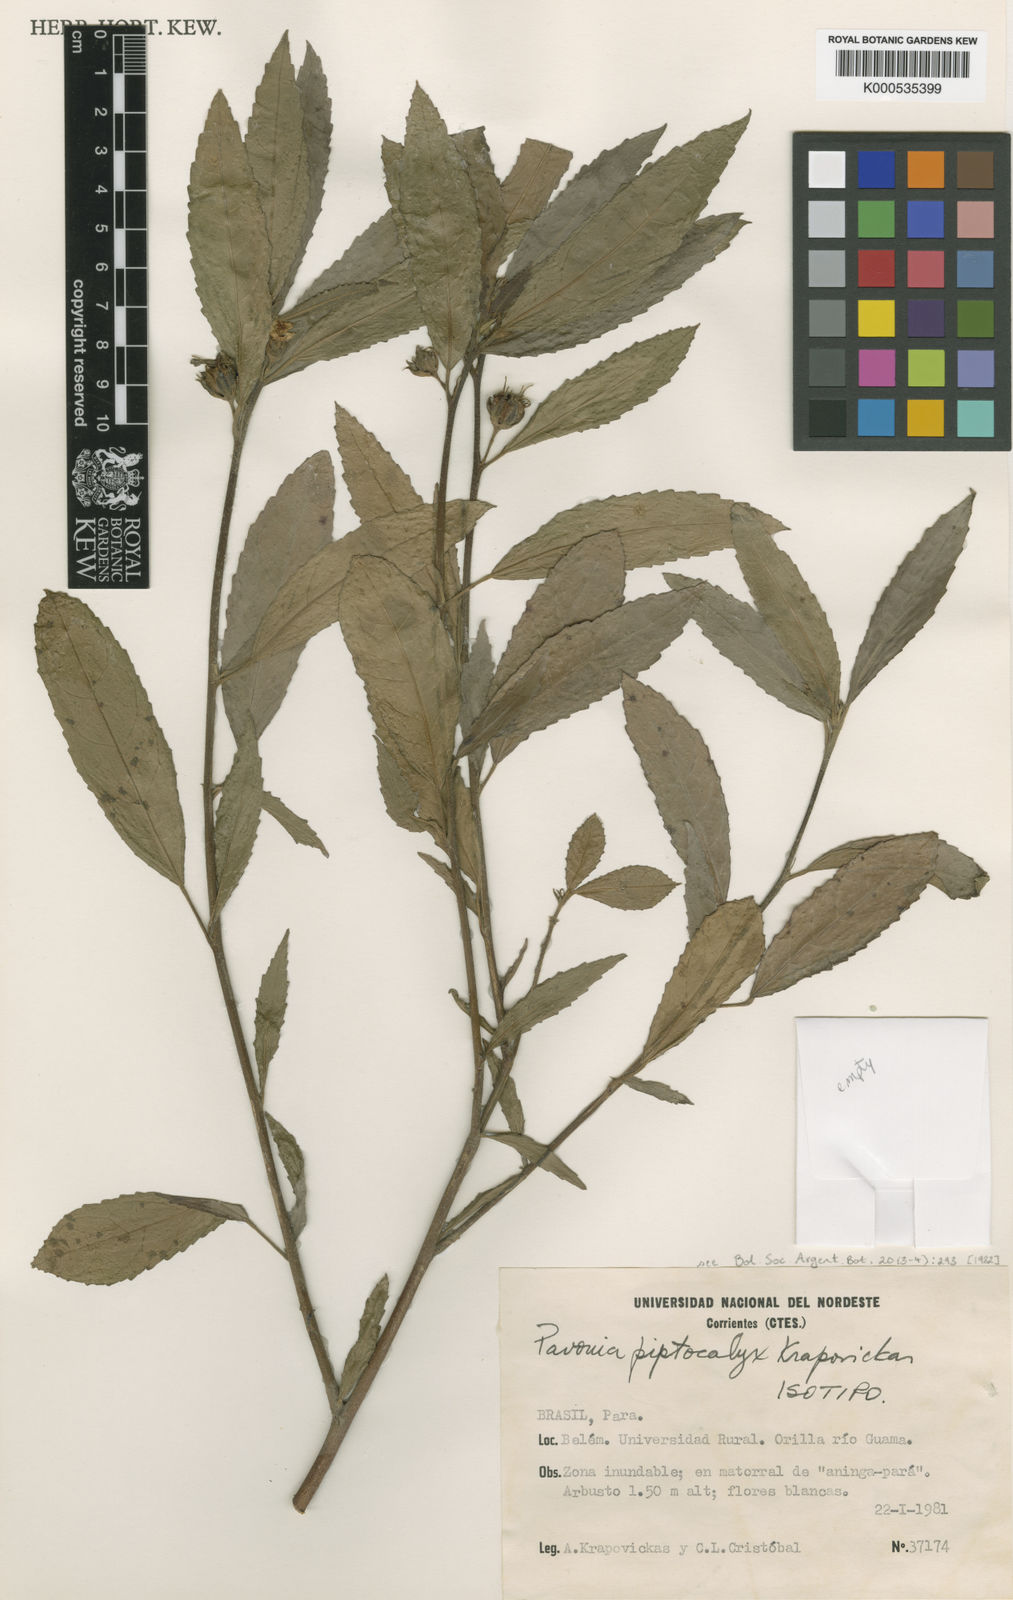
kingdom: Plantae
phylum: Tracheophyta
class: Magnoliopsida
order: Malvales
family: Malvaceae
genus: Pavonia
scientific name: Pavonia piptocalyx
